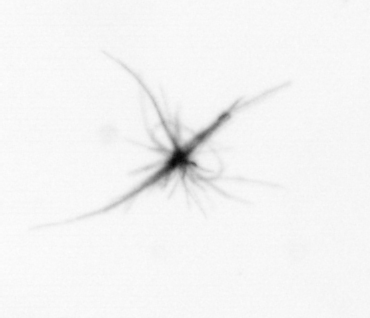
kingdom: Bacteria
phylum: Cyanobacteria
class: Cyanobacteriia
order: Cyanobacteriales
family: Microcoleaceae
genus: Trichodesmium
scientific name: Trichodesmium
